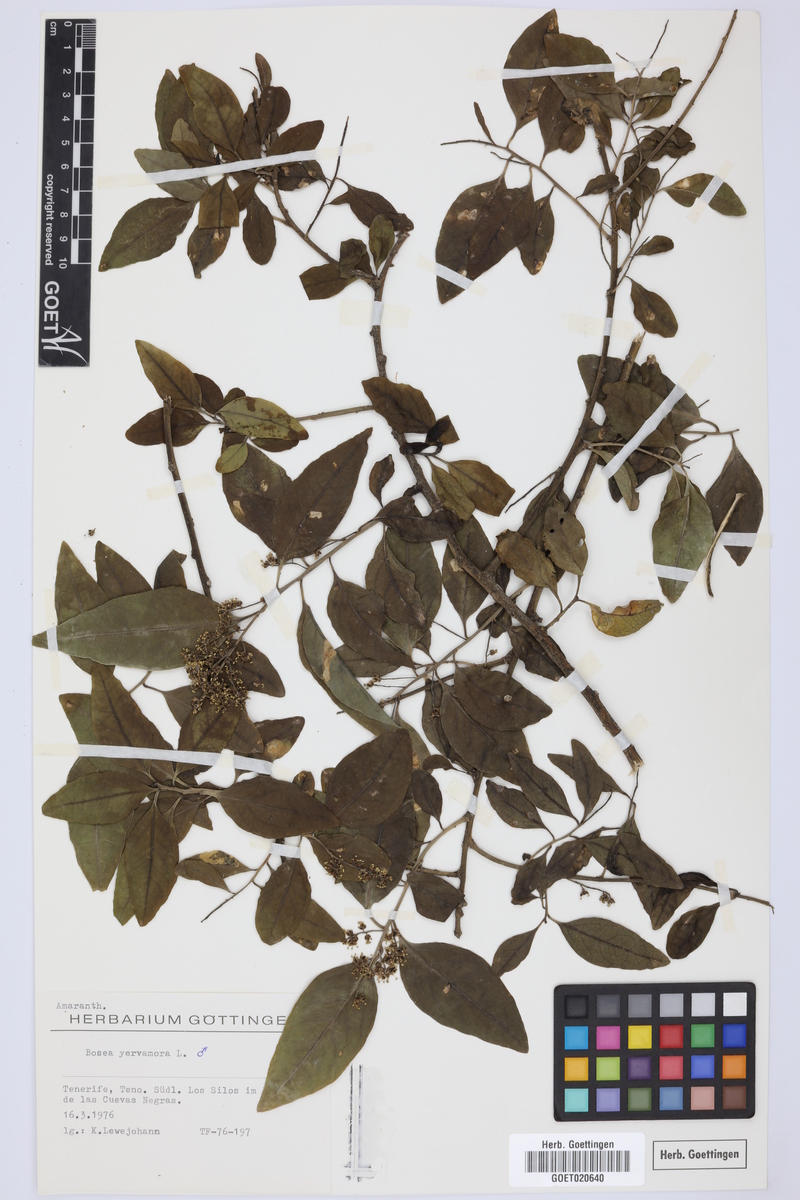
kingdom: Plantae
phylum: Tracheophyta
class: Magnoliopsida
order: Caryophyllales
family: Amaranthaceae
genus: Bosea
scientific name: Bosea yervamora
